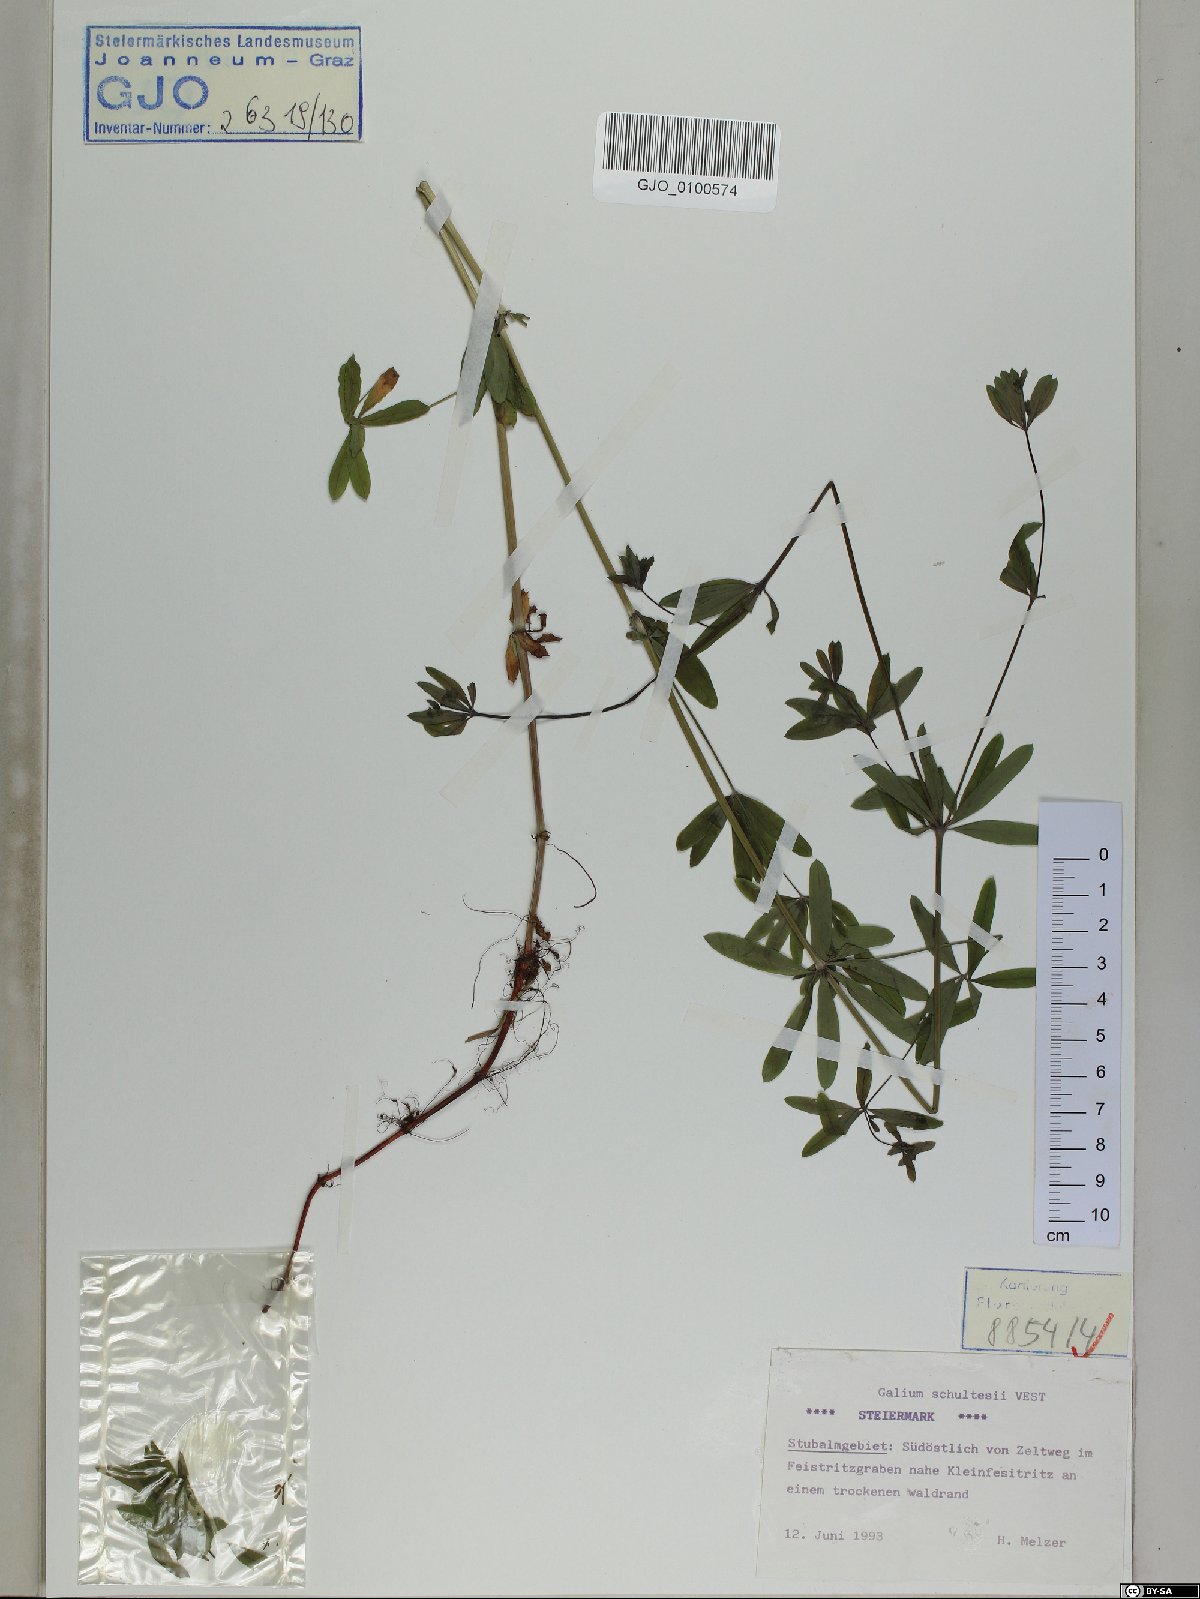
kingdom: Plantae
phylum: Tracheophyta
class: Magnoliopsida
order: Gentianales
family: Rubiaceae
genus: Galium
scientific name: Galium intermedium
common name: Bedstraw
